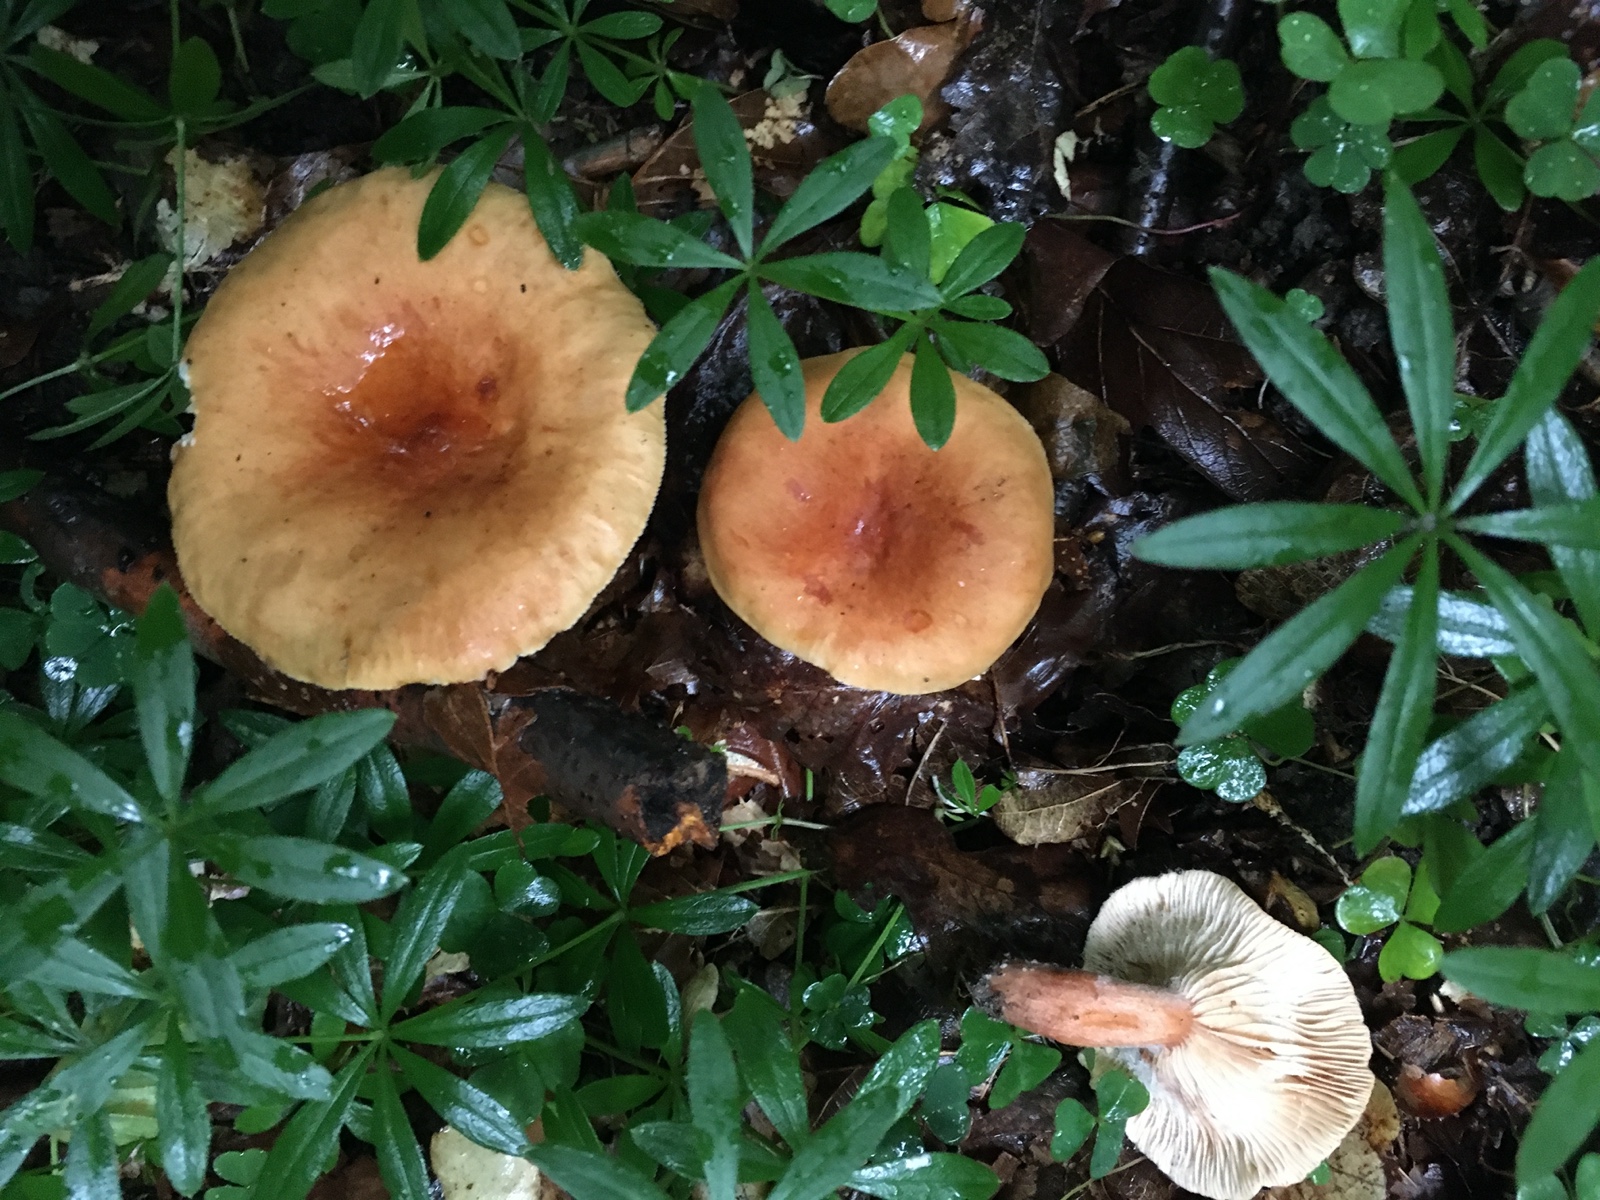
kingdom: Fungi
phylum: Basidiomycota
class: Agaricomycetes
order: Russulales
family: Russulaceae
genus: Lactarius
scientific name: Lactarius
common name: mælkehat
